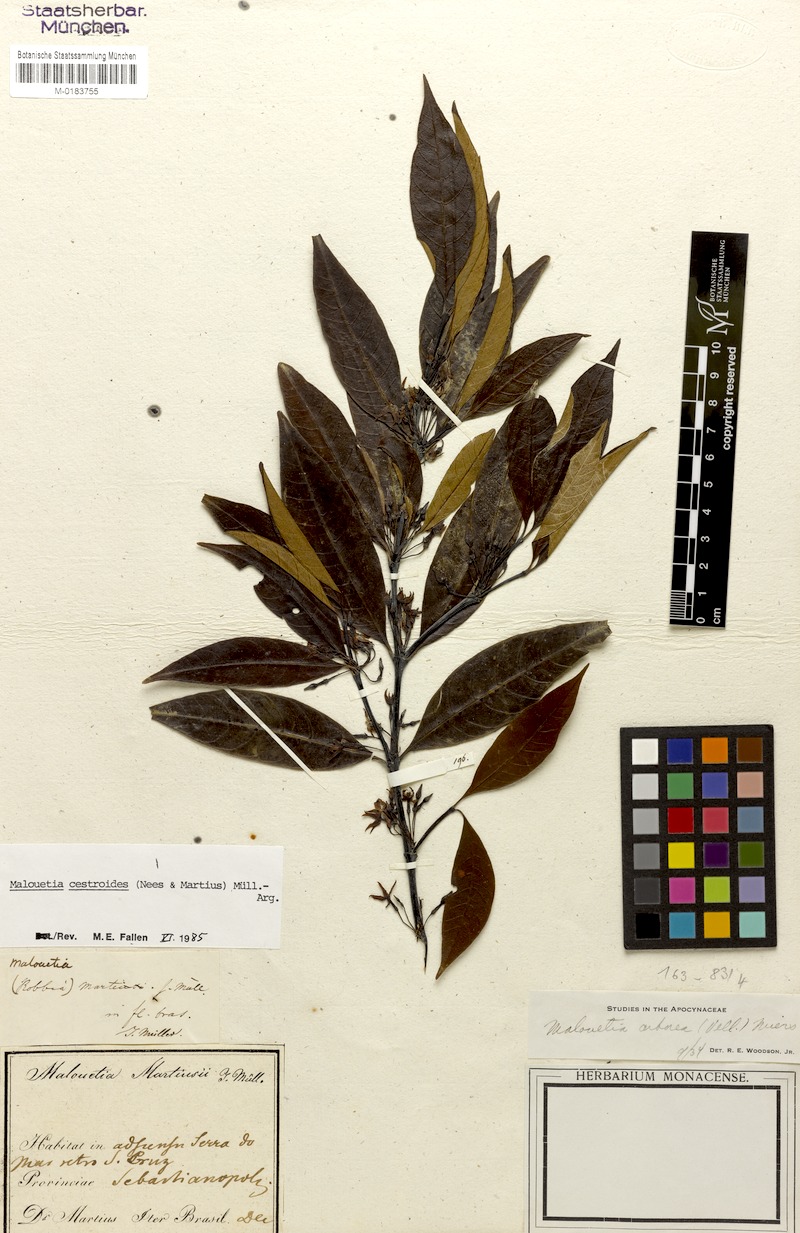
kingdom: Plantae
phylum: Tracheophyta
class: Magnoliopsida
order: Gentianales
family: Apocynaceae
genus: Malouetia
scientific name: Malouetia cestroides
